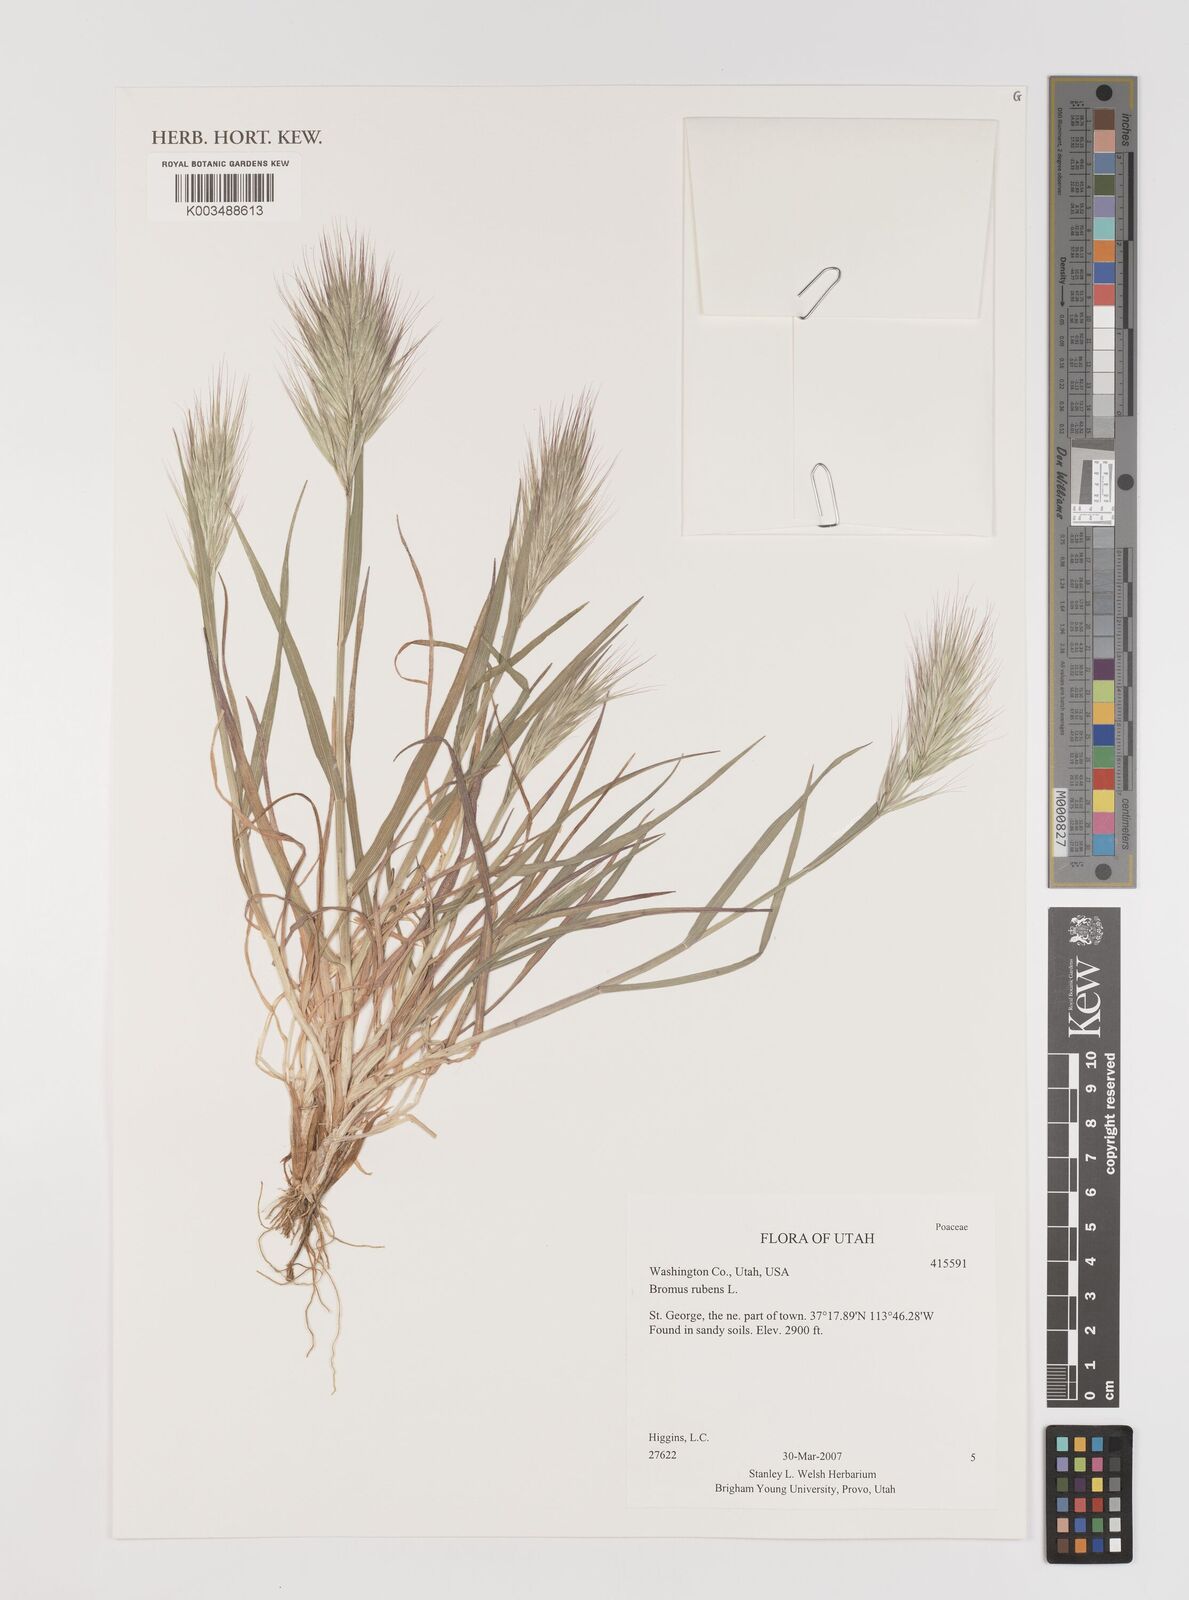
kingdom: Plantae
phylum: Tracheophyta
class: Liliopsida
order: Poales
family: Poaceae
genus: Bromus
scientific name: Bromus rubens
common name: Red brome
